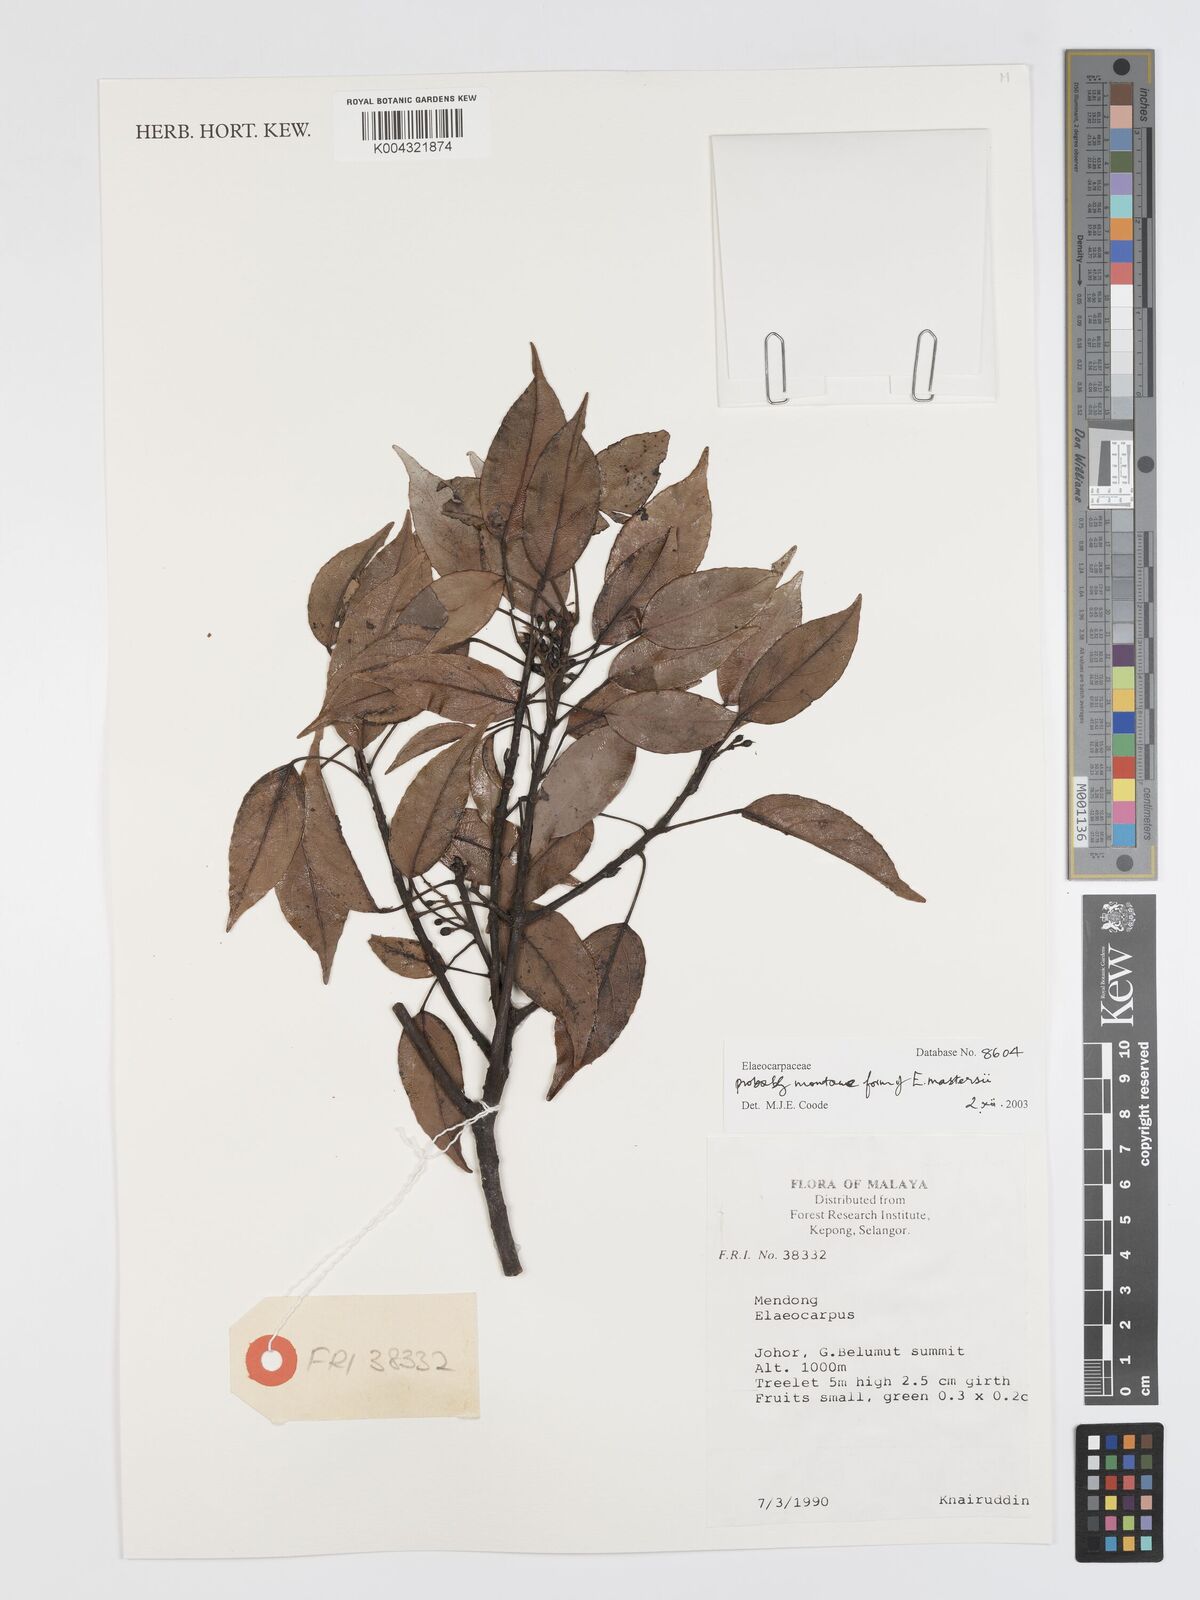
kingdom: Plantae
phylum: Tracheophyta
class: Magnoliopsida
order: Oxalidales
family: Elaeocarpaceae
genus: Elaeocarpus
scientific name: Elaeocarpus mastersii
